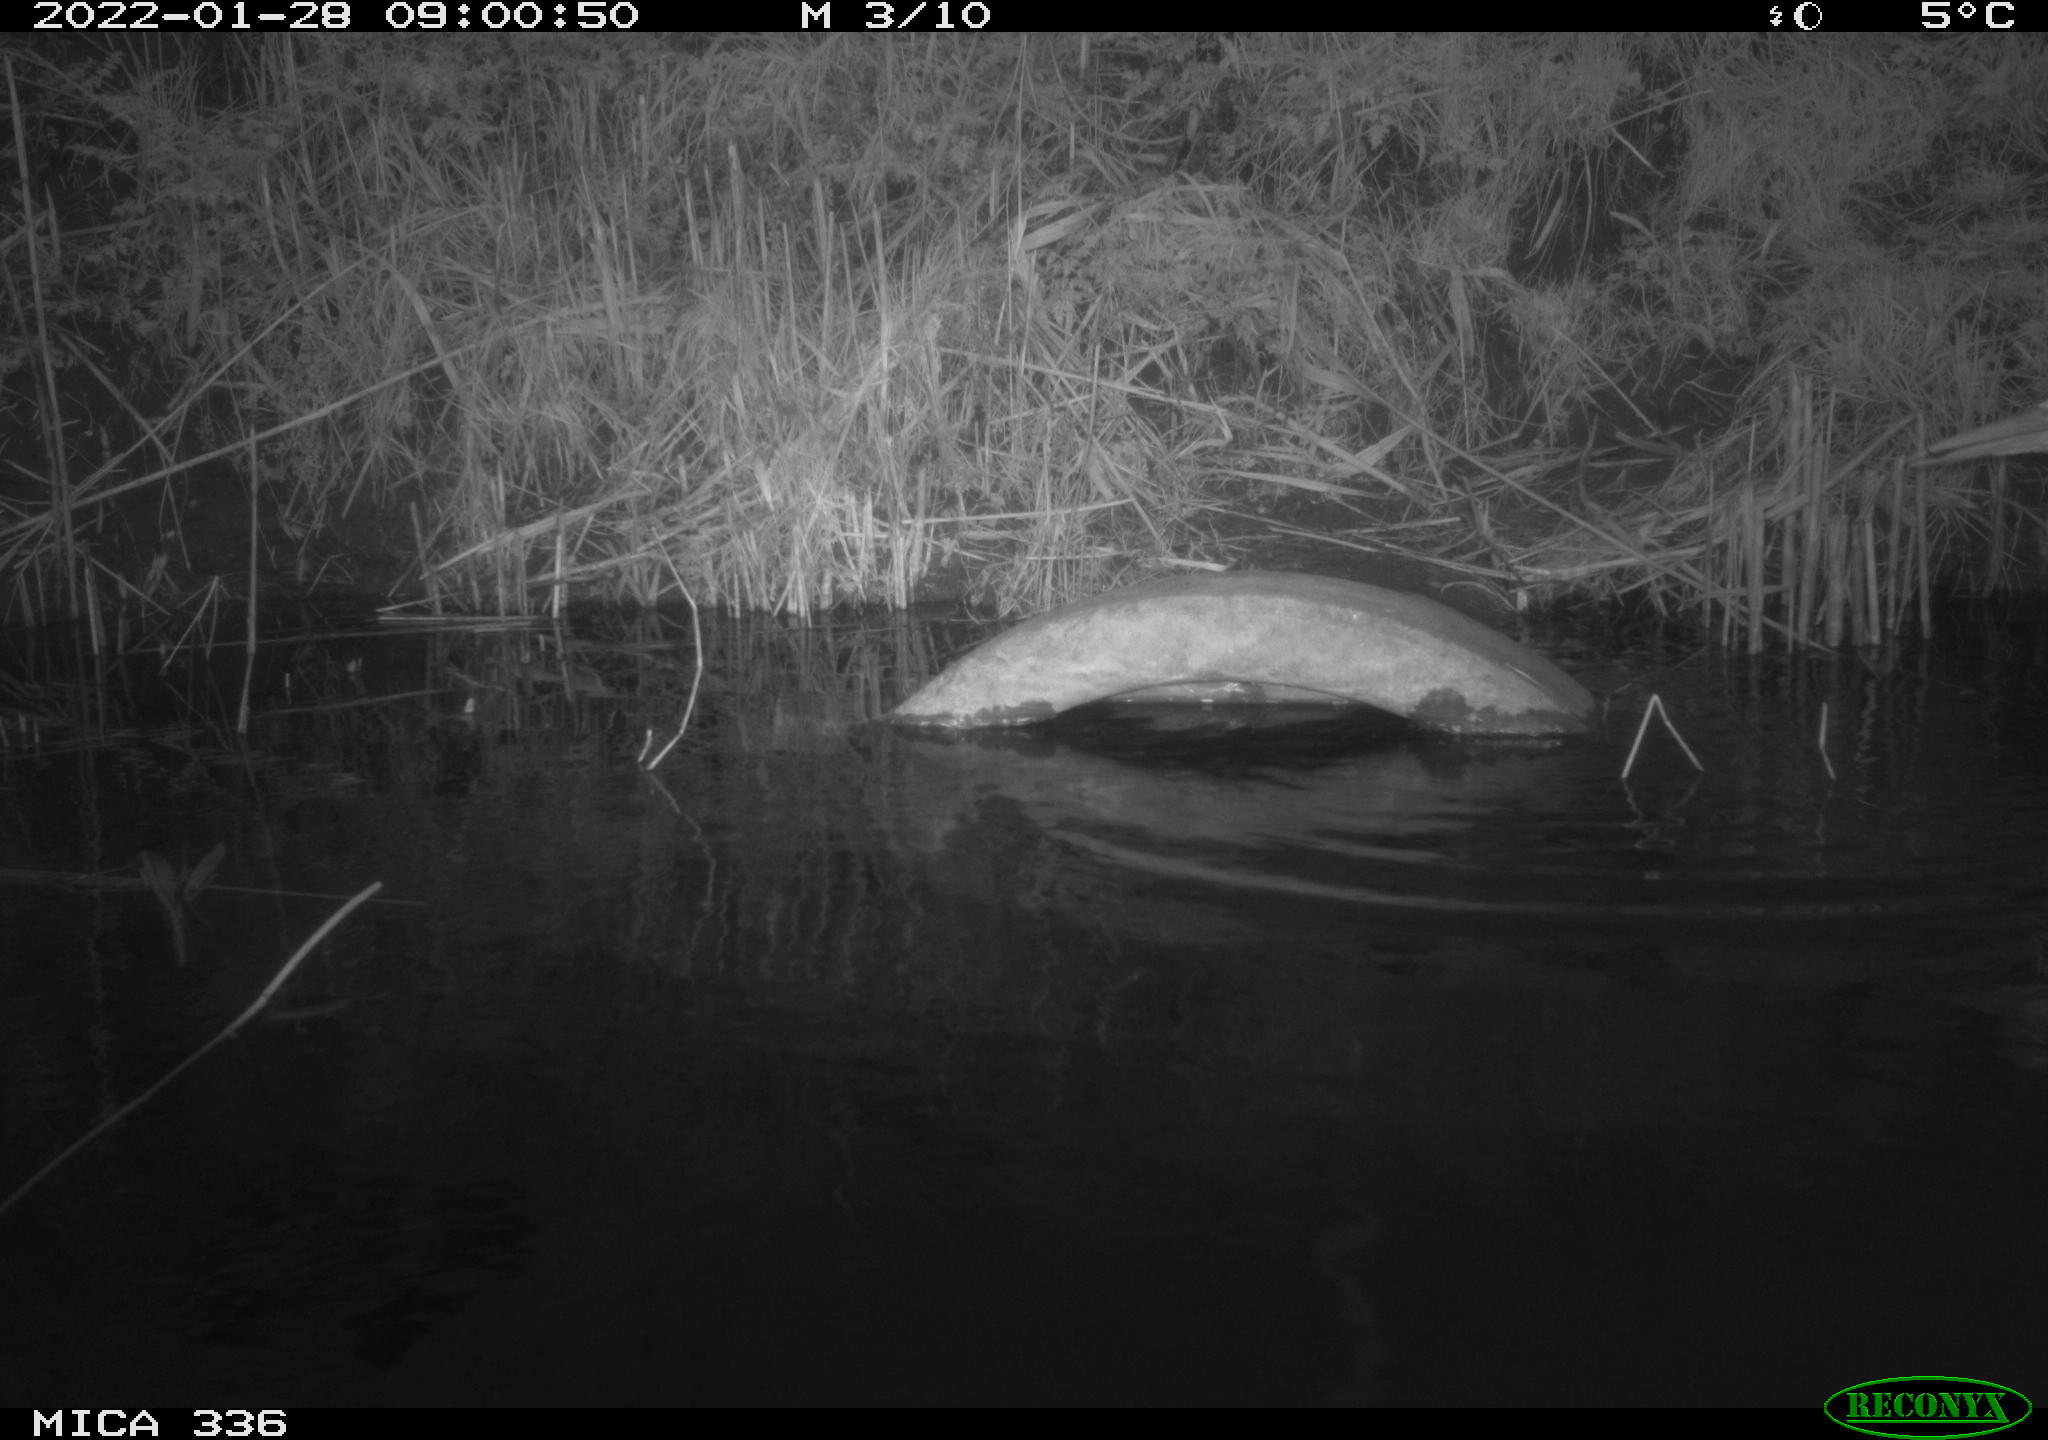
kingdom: Animalia
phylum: Chordata
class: Aves
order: Pelecaniformes
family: Ardeidae
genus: Ardea
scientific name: Ardea cinerea
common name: Grey heron
